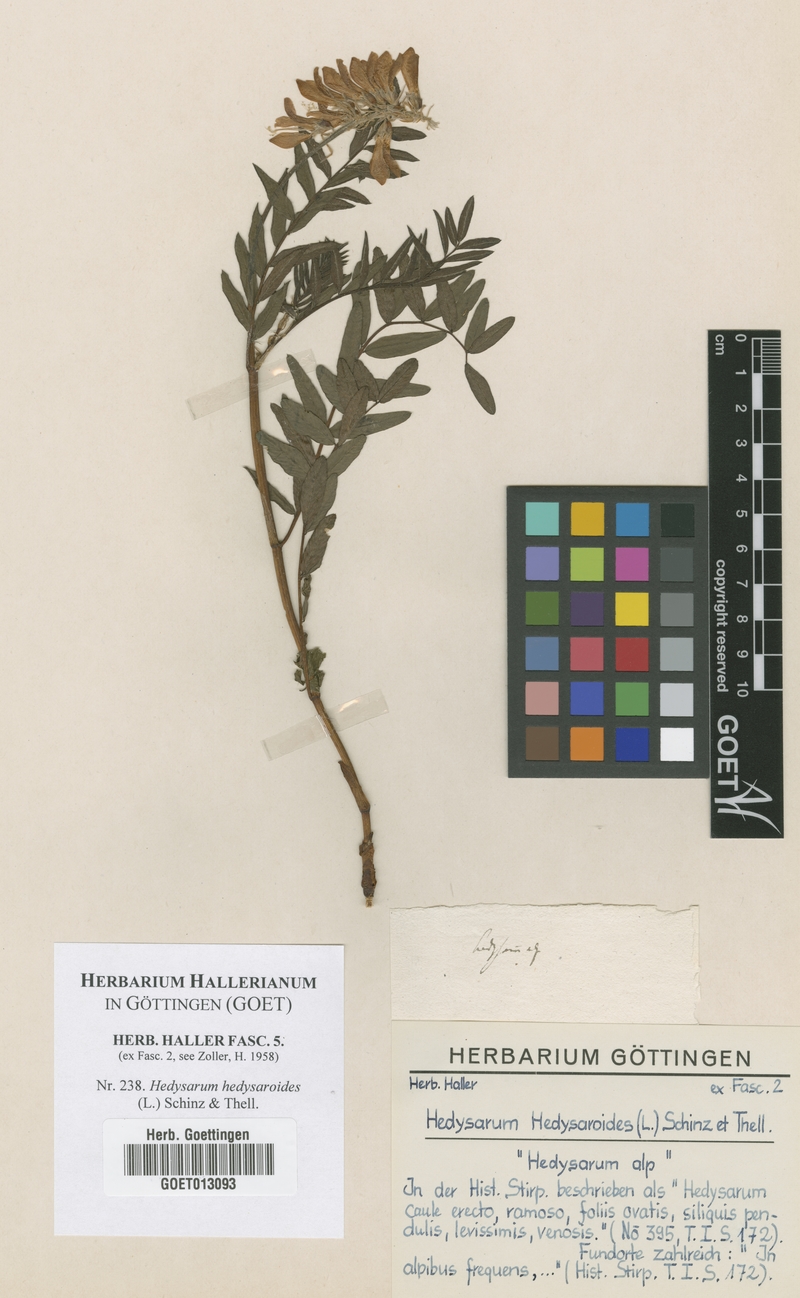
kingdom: Plantae
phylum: Tracheophyta
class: Magnoliopsida
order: Fabales
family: Fabaceae
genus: Hedysarum
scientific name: Hedysarum hedysaroides
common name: Alpine french-honeysuckle
